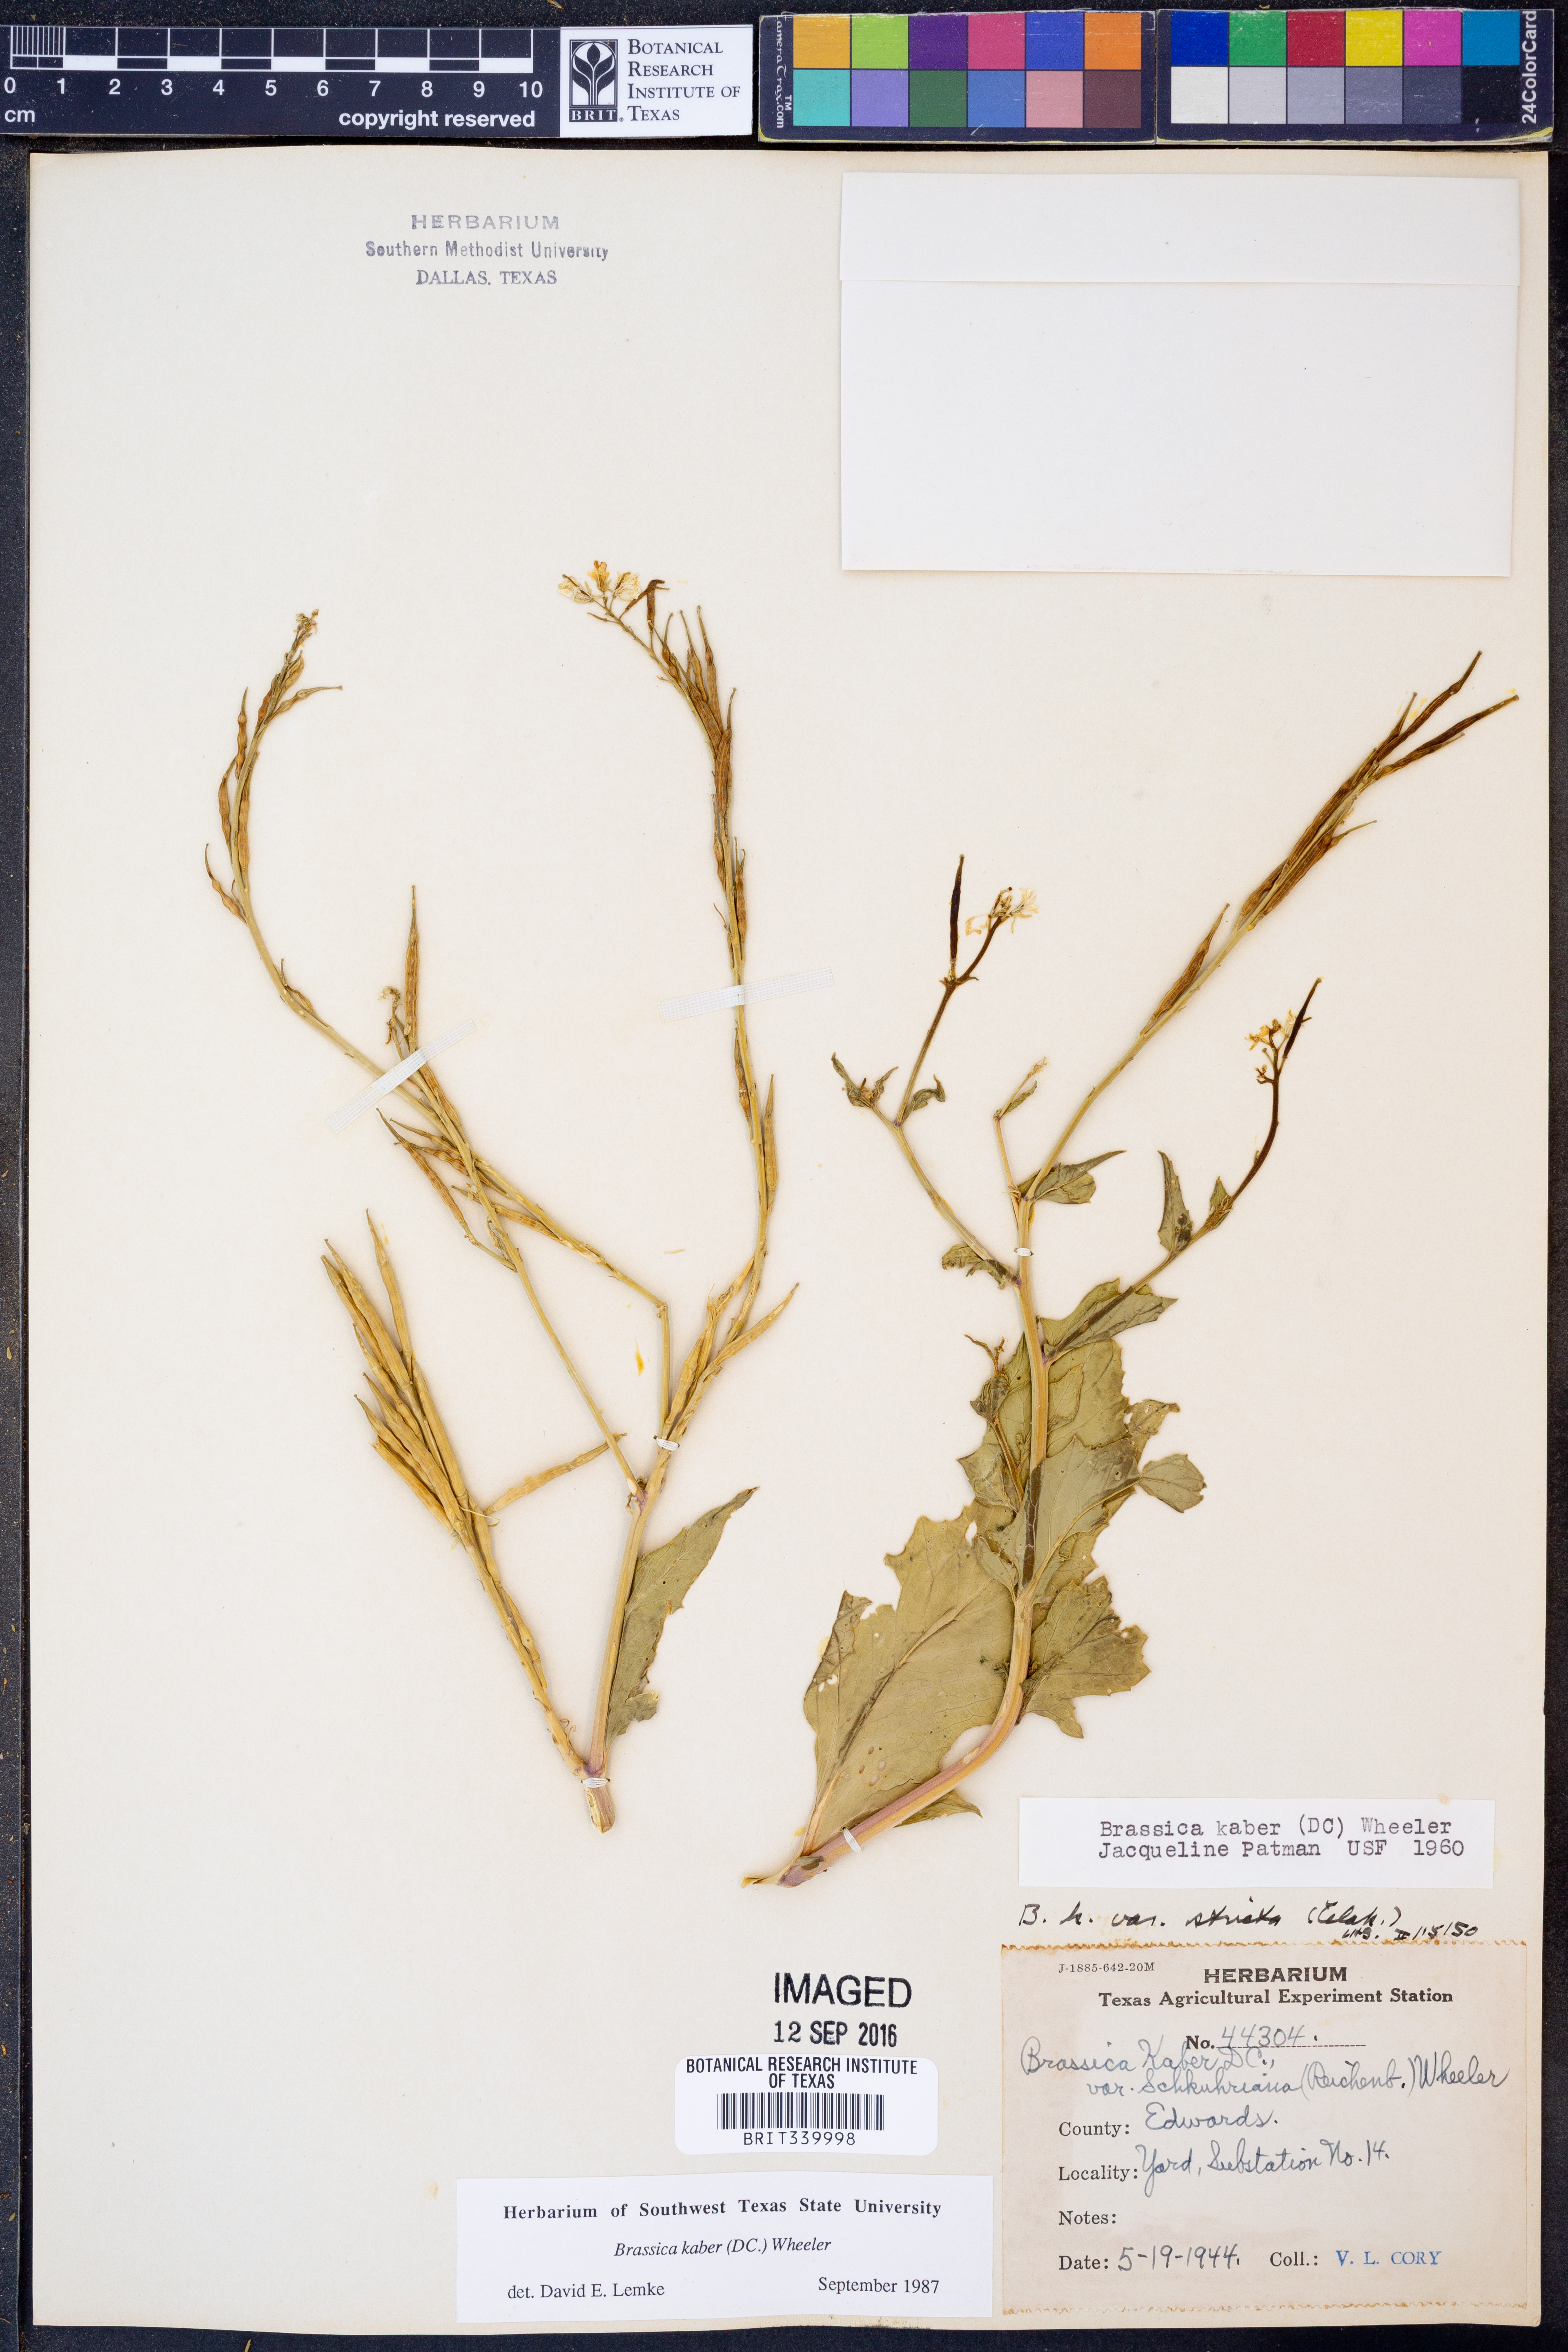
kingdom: Plantae
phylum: Tracheophyta
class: Magnoliopsida
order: Brassicales
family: Brassicaceae
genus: Sinapis
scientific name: Sinapis arvensis
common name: Charlock
